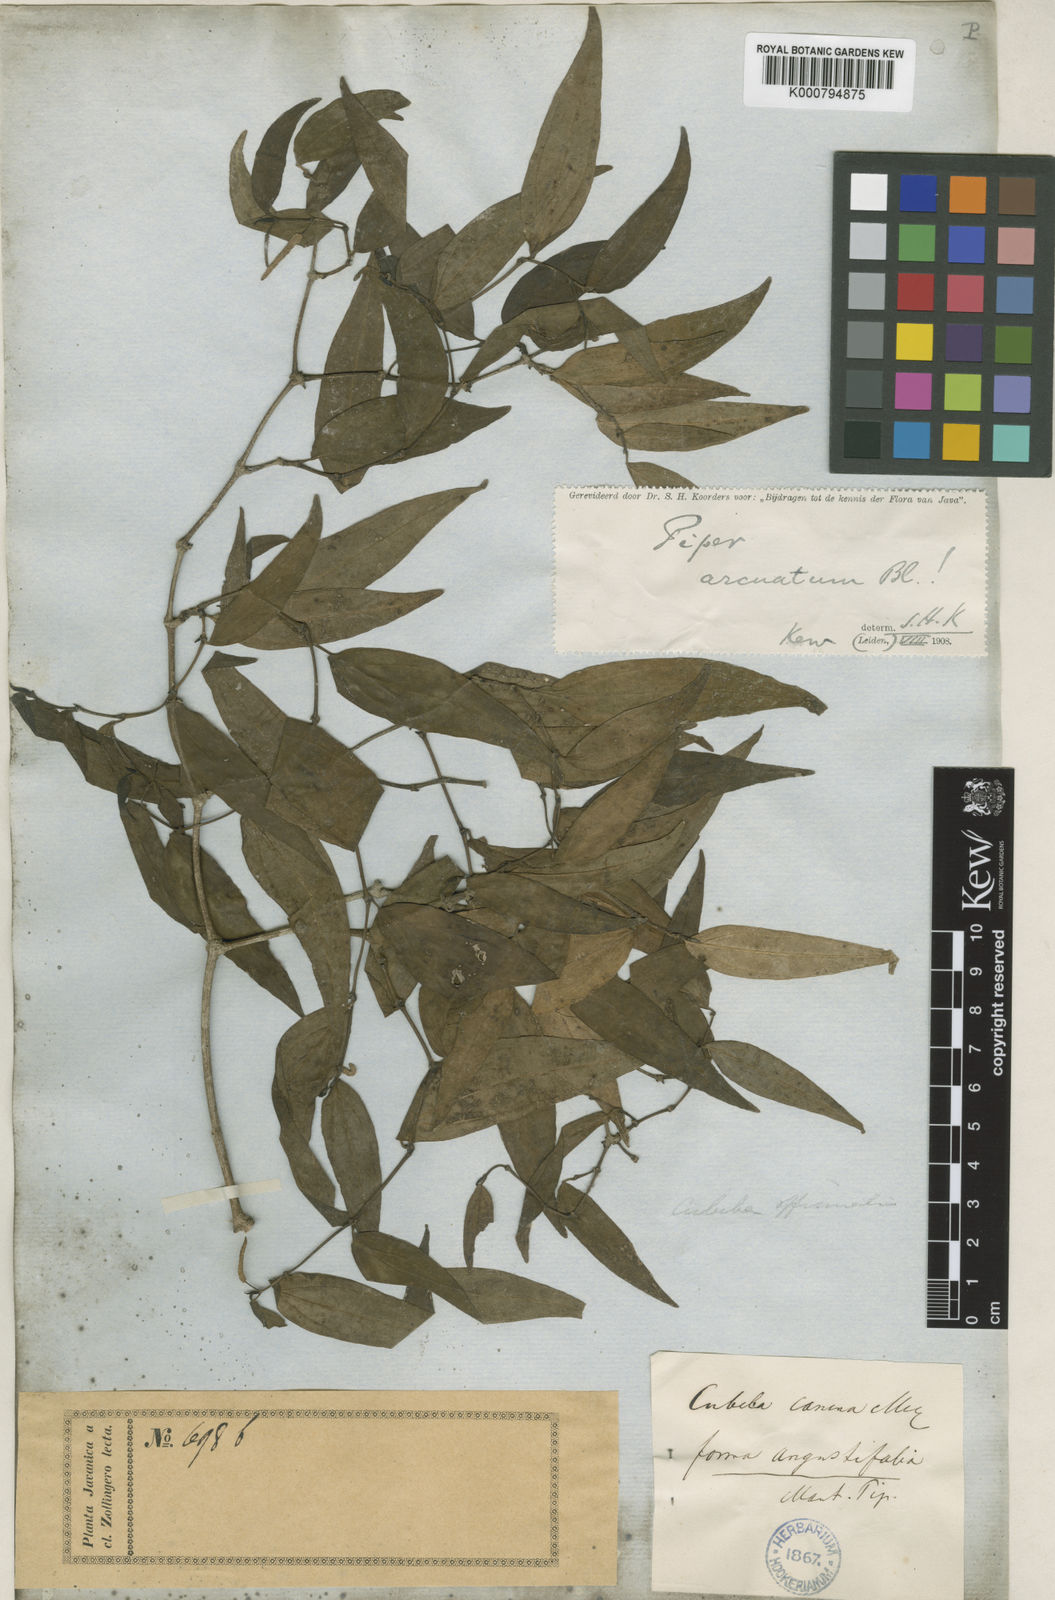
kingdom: Plantae
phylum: Tracheophyta
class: Magnoliopsida
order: Piperales
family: Piperaceae
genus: Piper
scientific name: Piper lanatum
